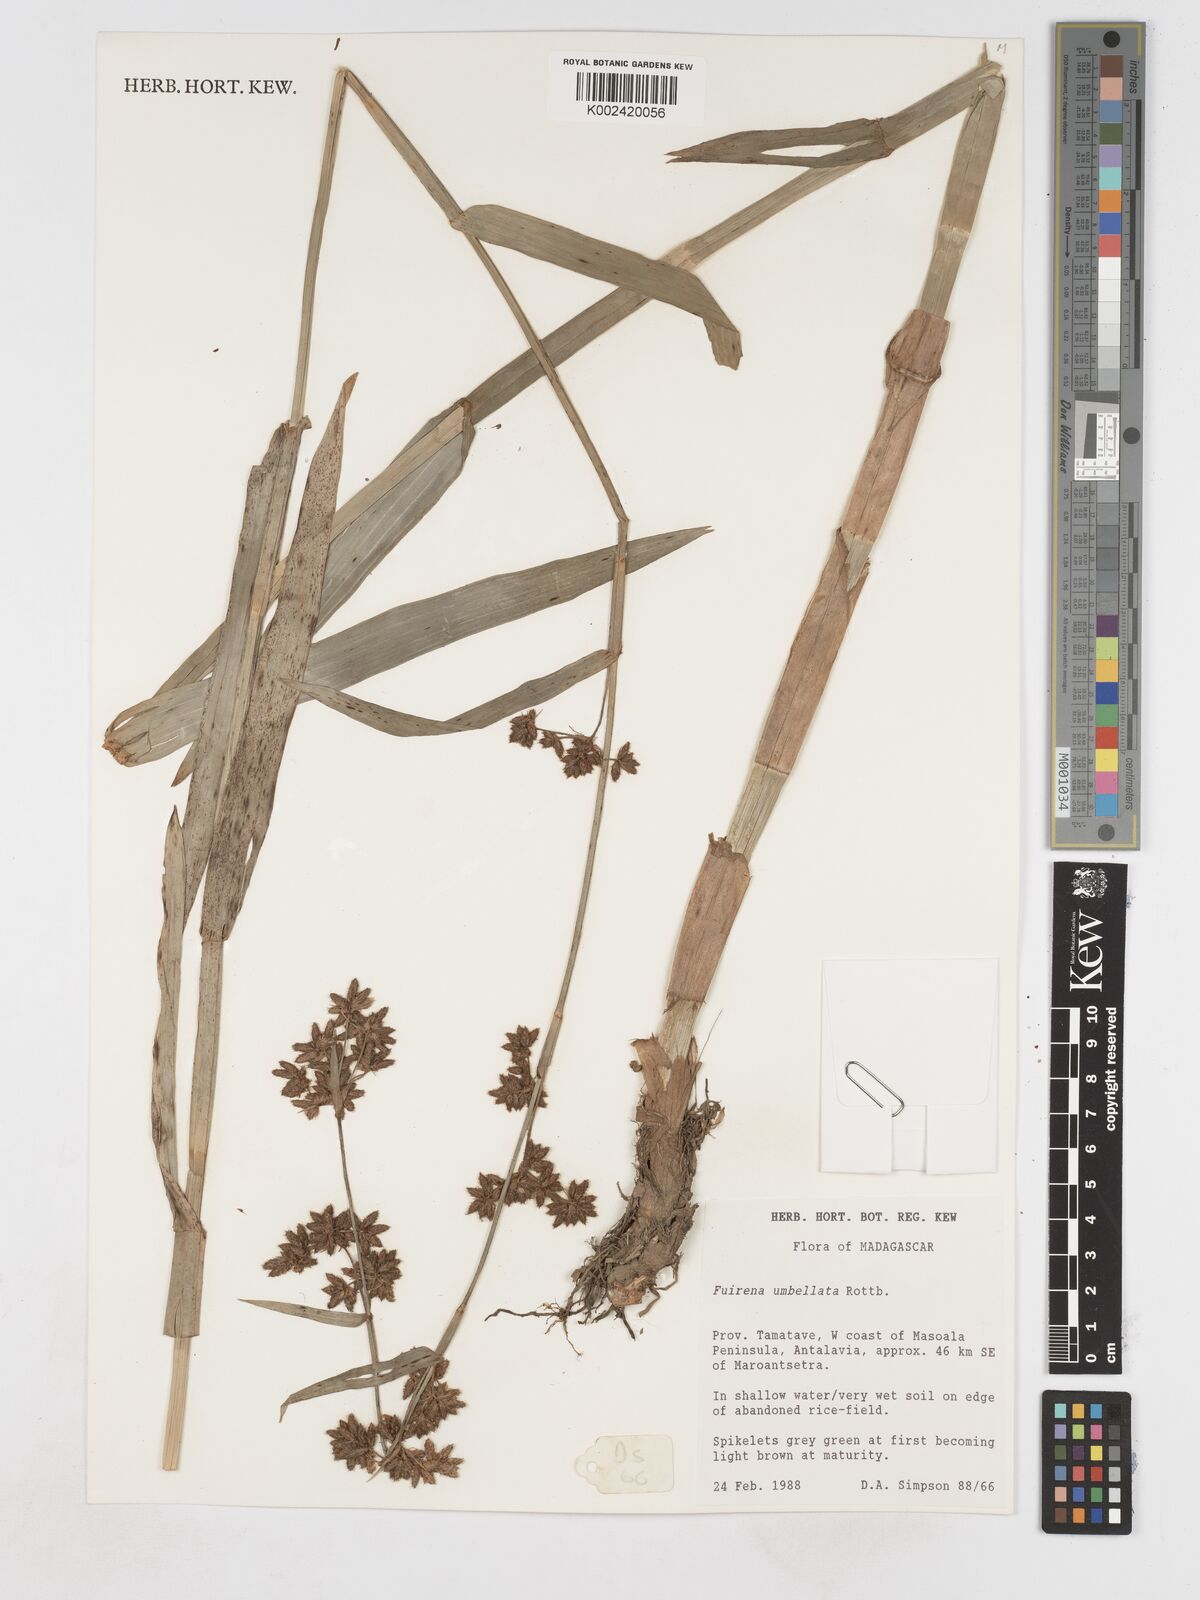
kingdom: Plantae
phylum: Tracheophyta
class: Liliopsida
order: Poales
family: Cyperaceae
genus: Fuirena
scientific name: Fuirena umbellata
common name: Yefen
